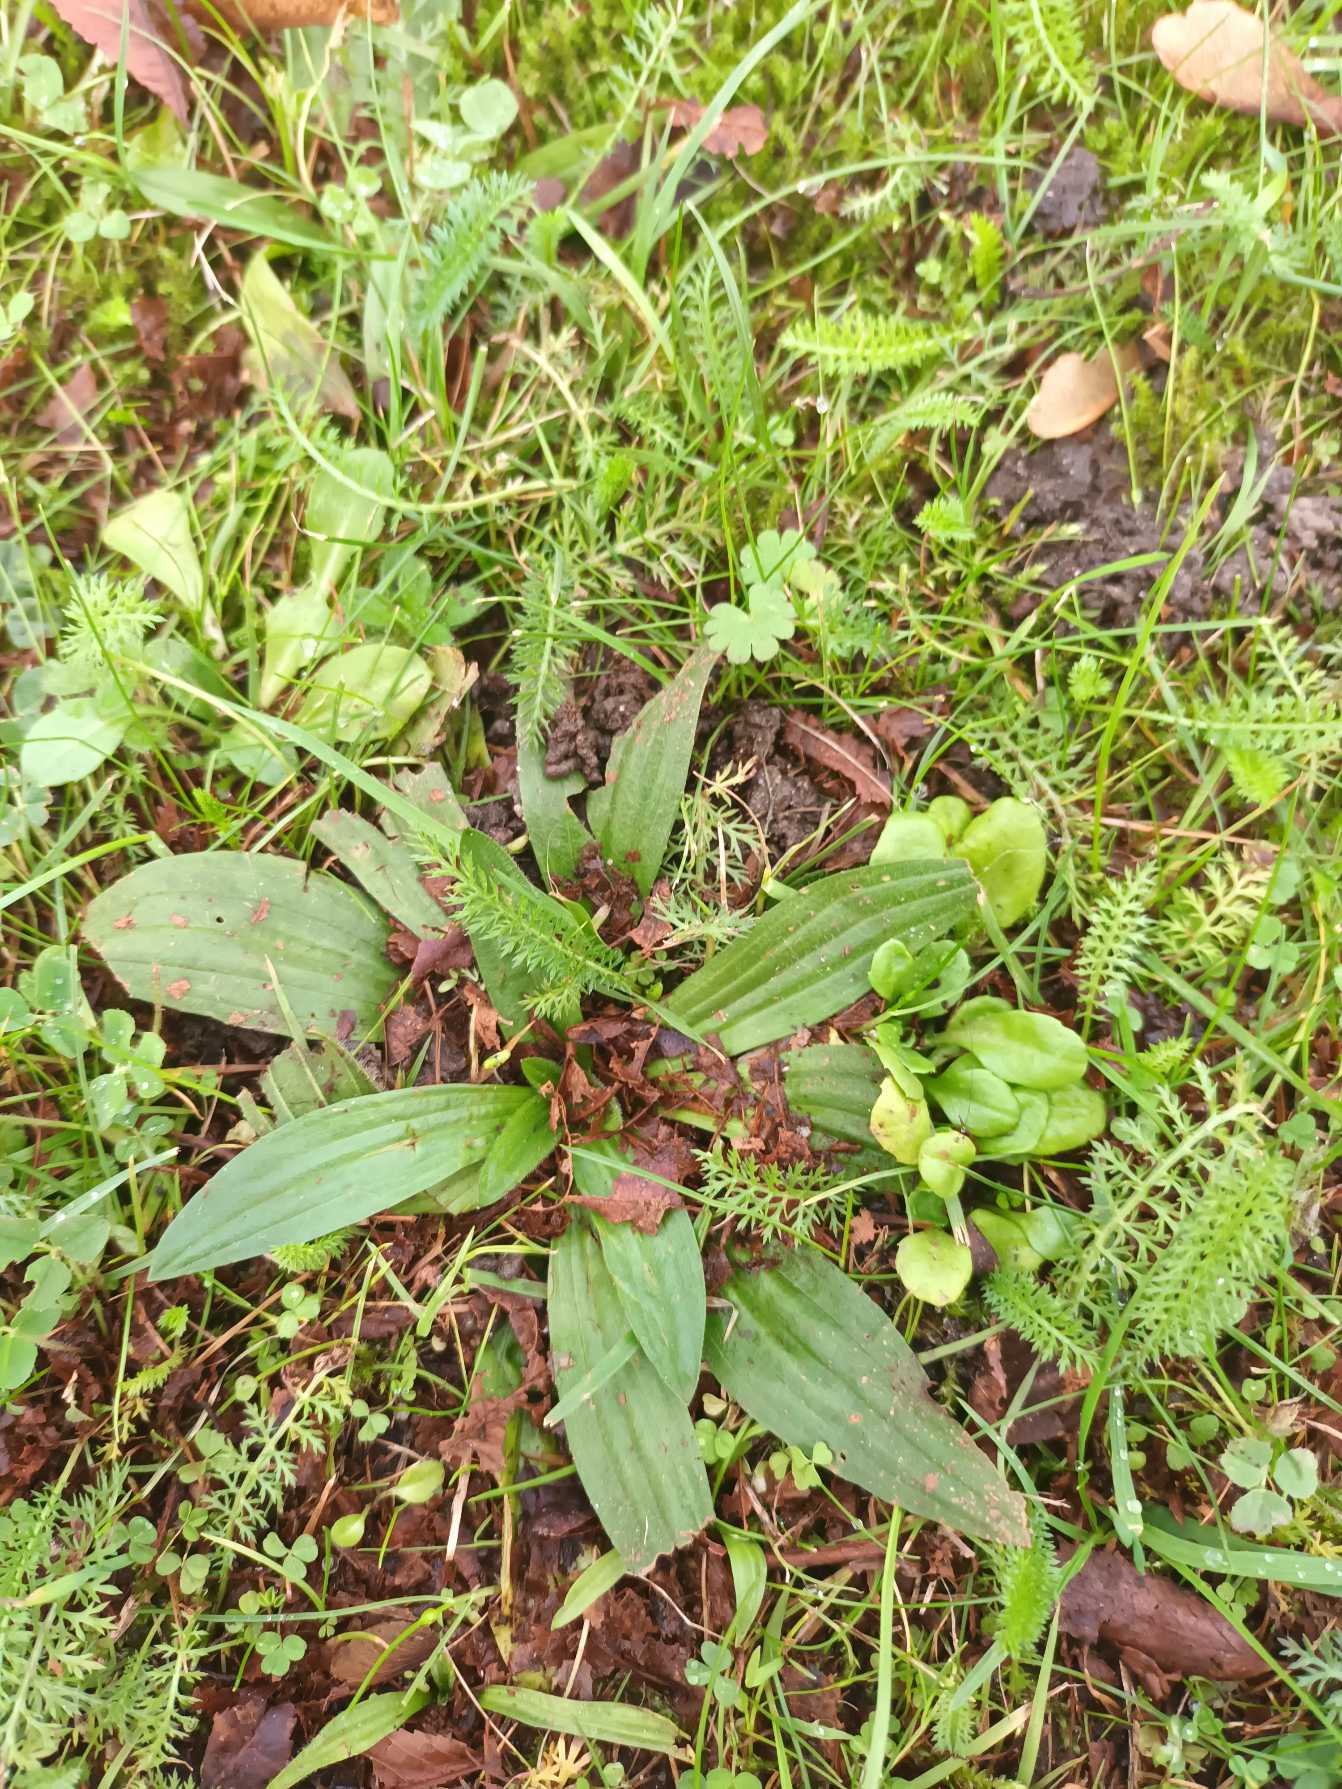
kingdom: Plantae
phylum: Tracheophyta
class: Magnoliopsida
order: Lamiales
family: Plantaginaceae
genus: Plantago
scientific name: Plantago lanceolata
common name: Lancet-vejbred
